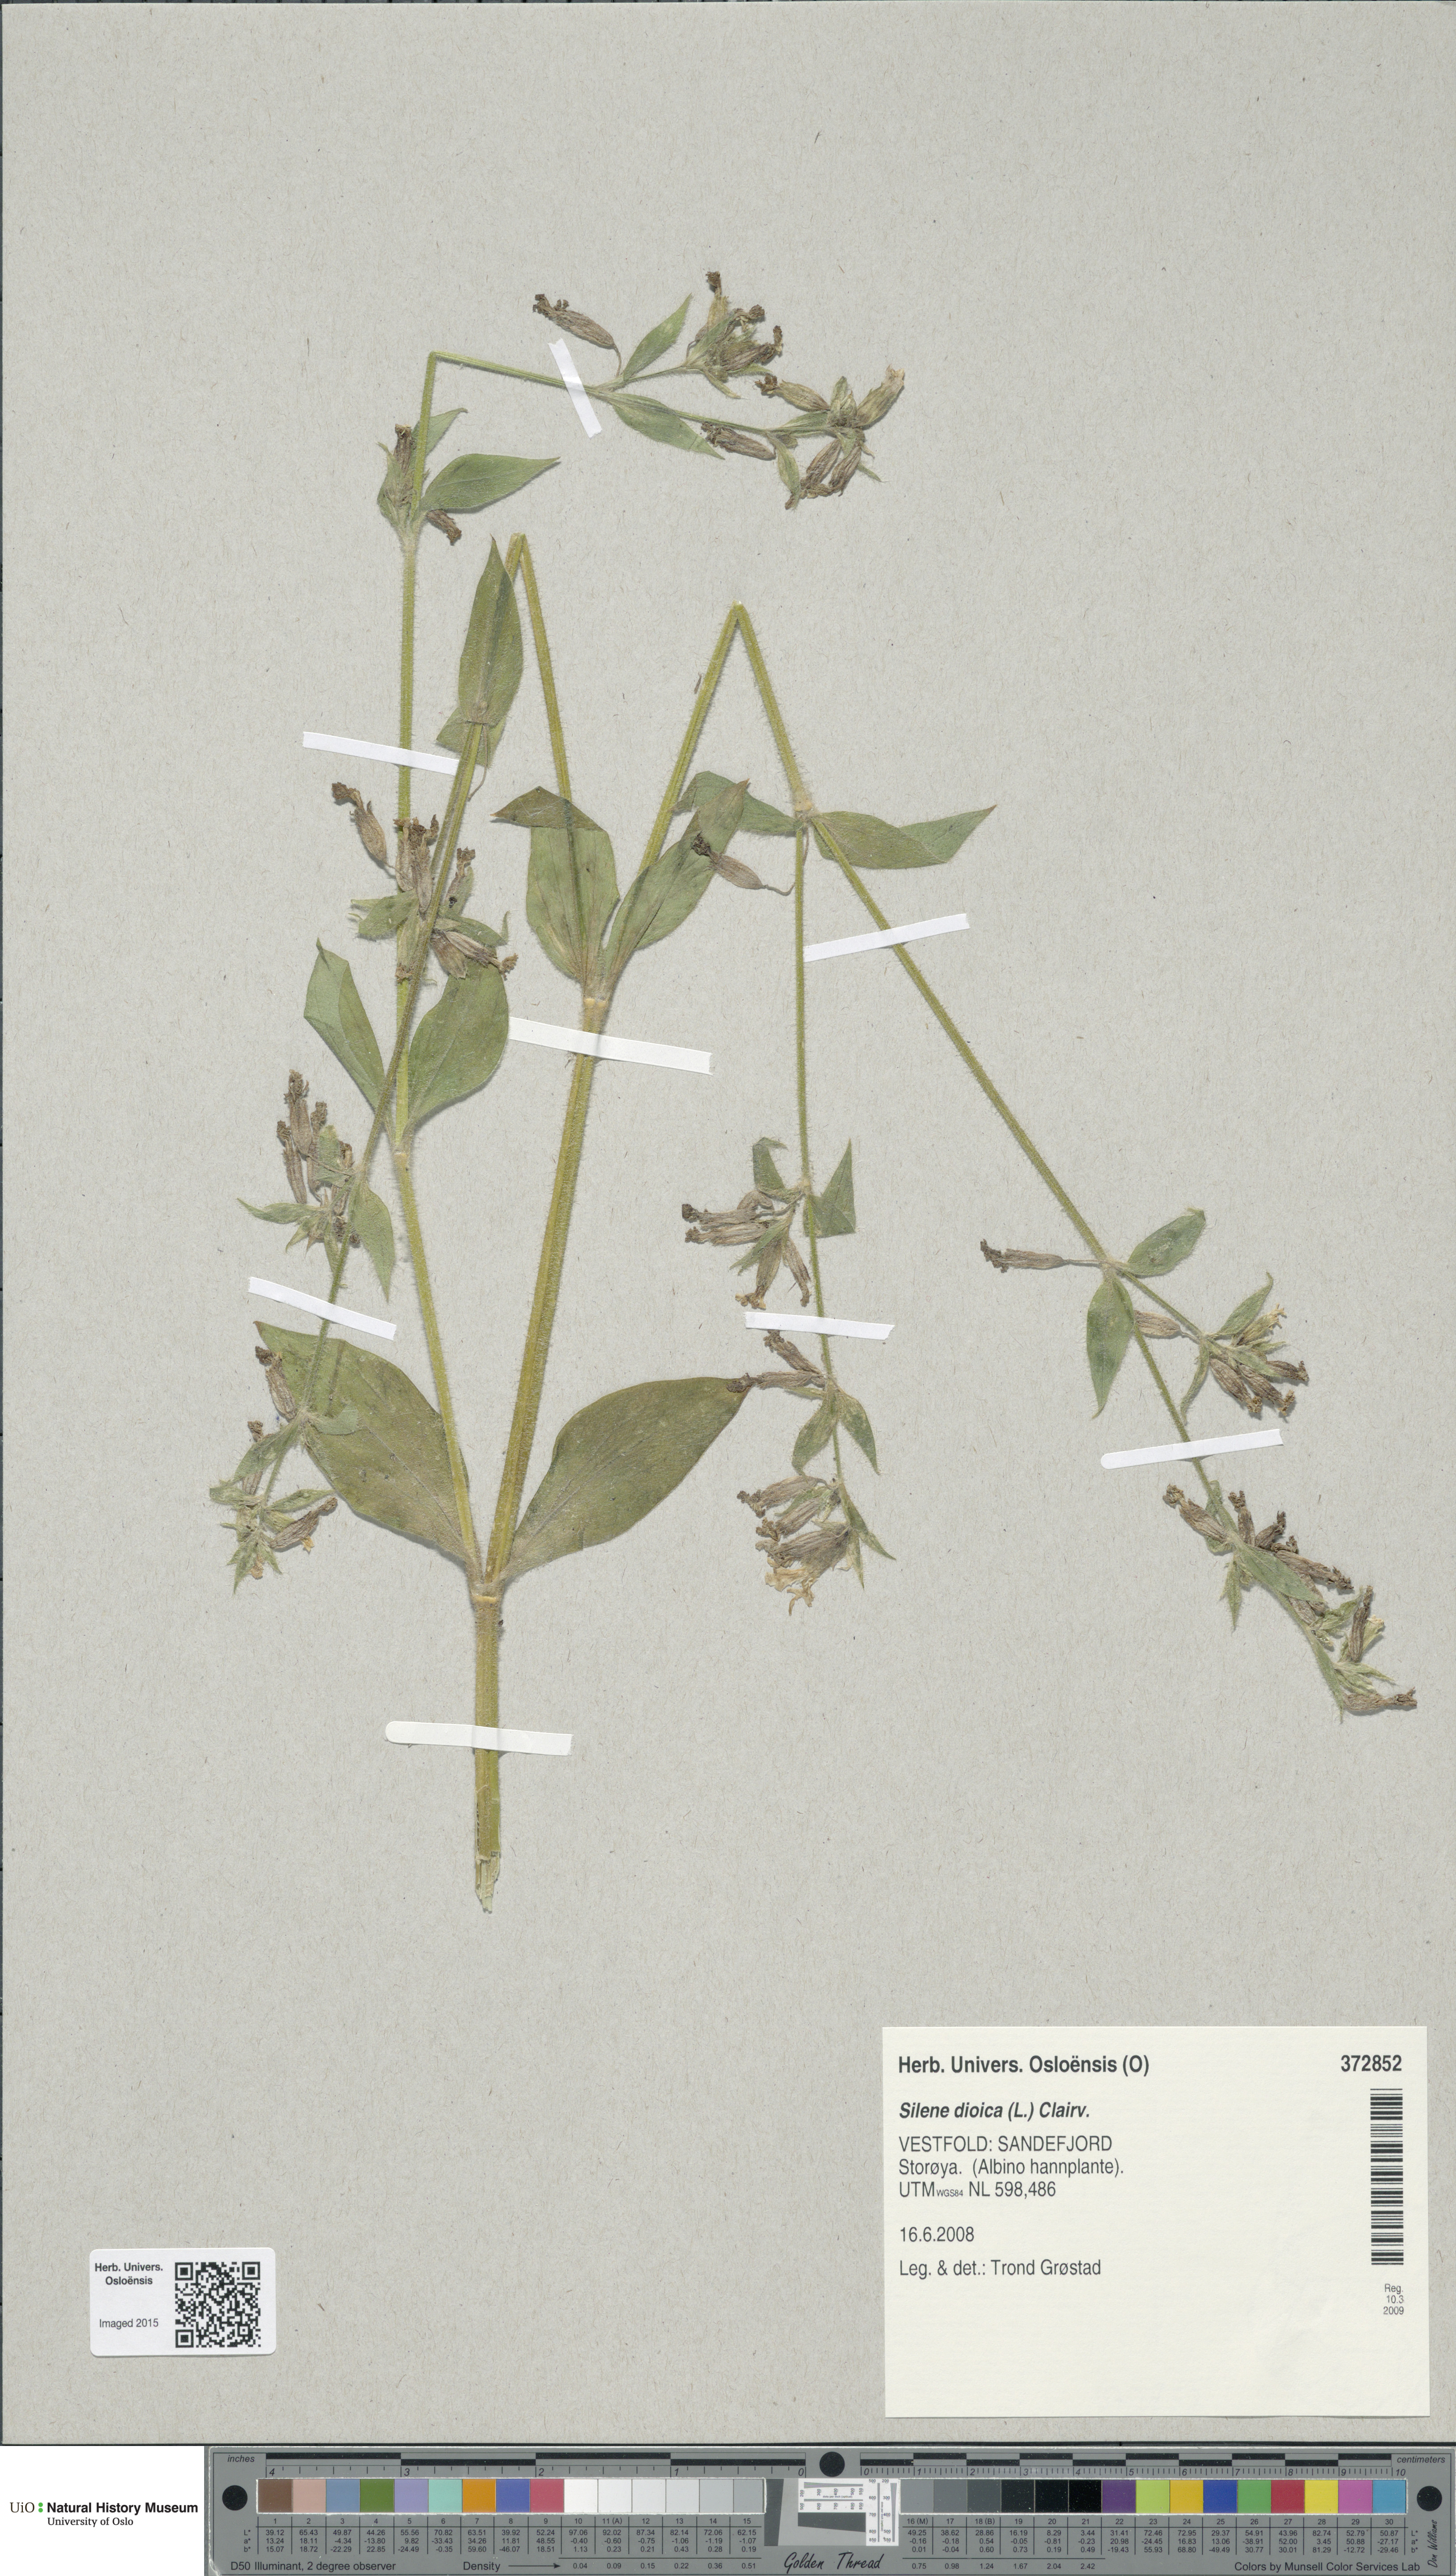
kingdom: Plantae
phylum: Tracheophyta
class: Magnoliopsida
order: Caryophyllales
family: Caryophyllaceae
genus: Silene
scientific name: Silene dioica
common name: Red campion
